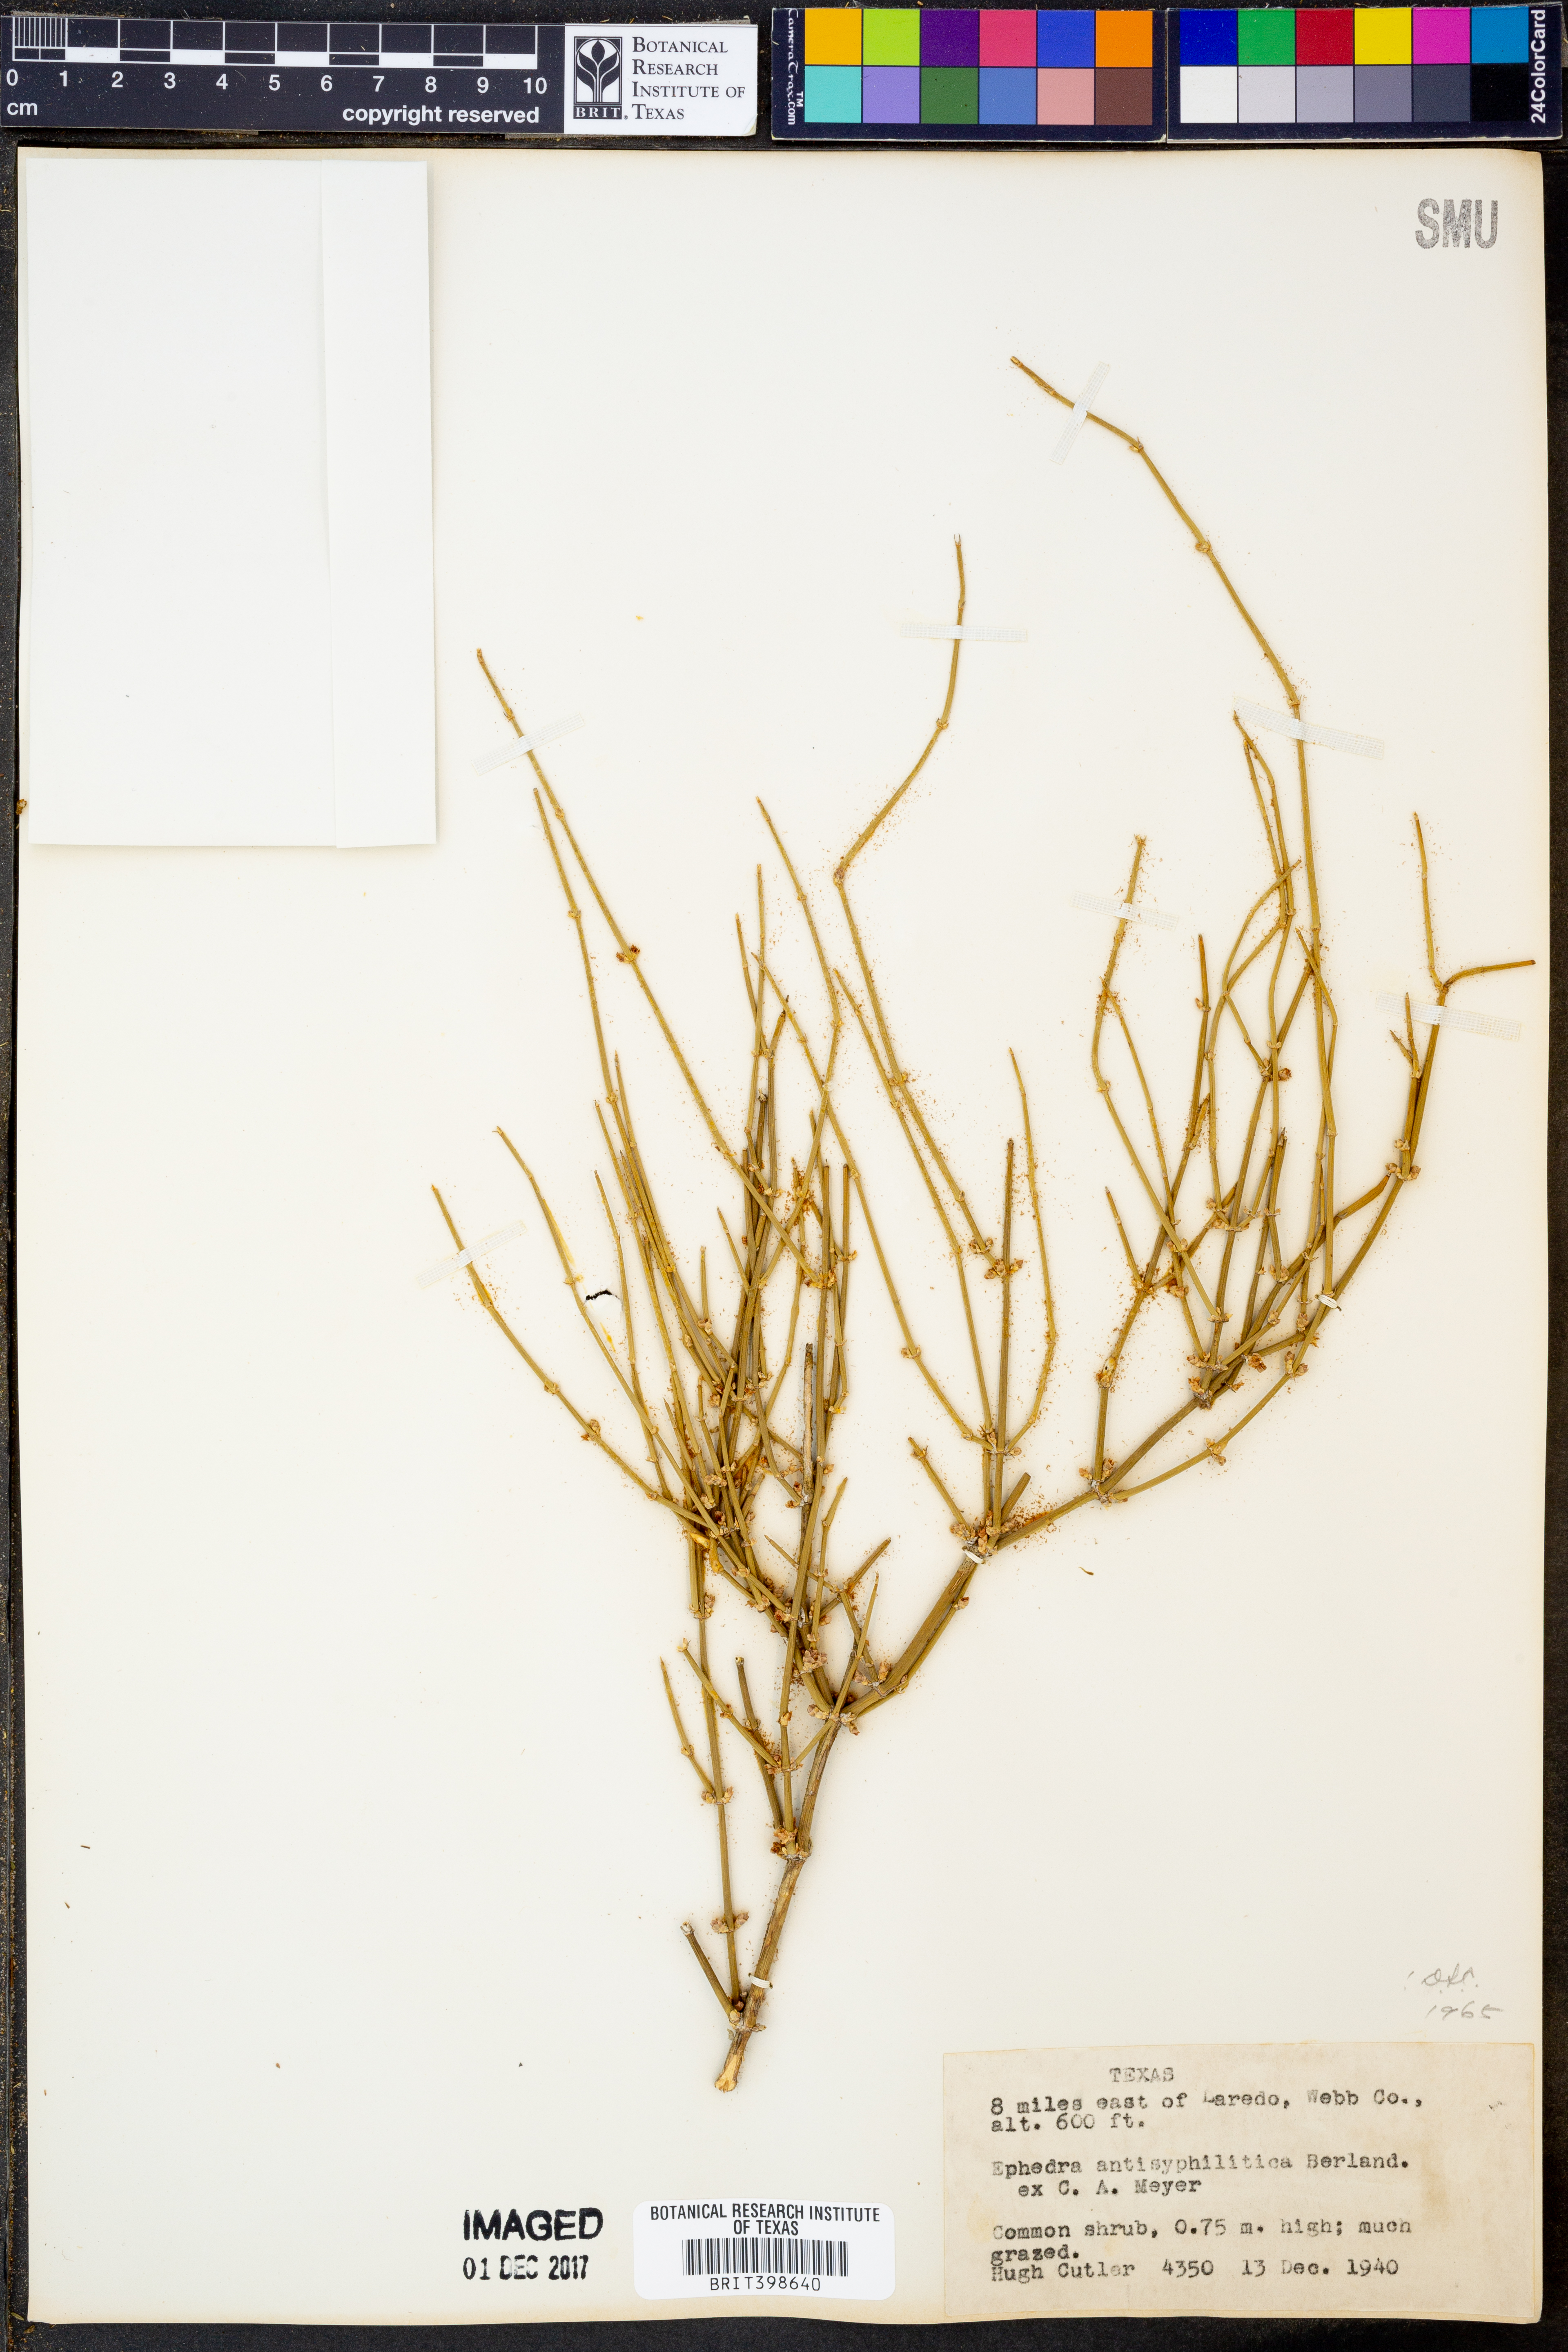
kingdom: Plantae
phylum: Tracheophyta
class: Gnetopsida
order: Ephedrales
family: Ephedraceae
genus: Ephedra
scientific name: Ephedra antisyphilitica
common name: Clipweed
